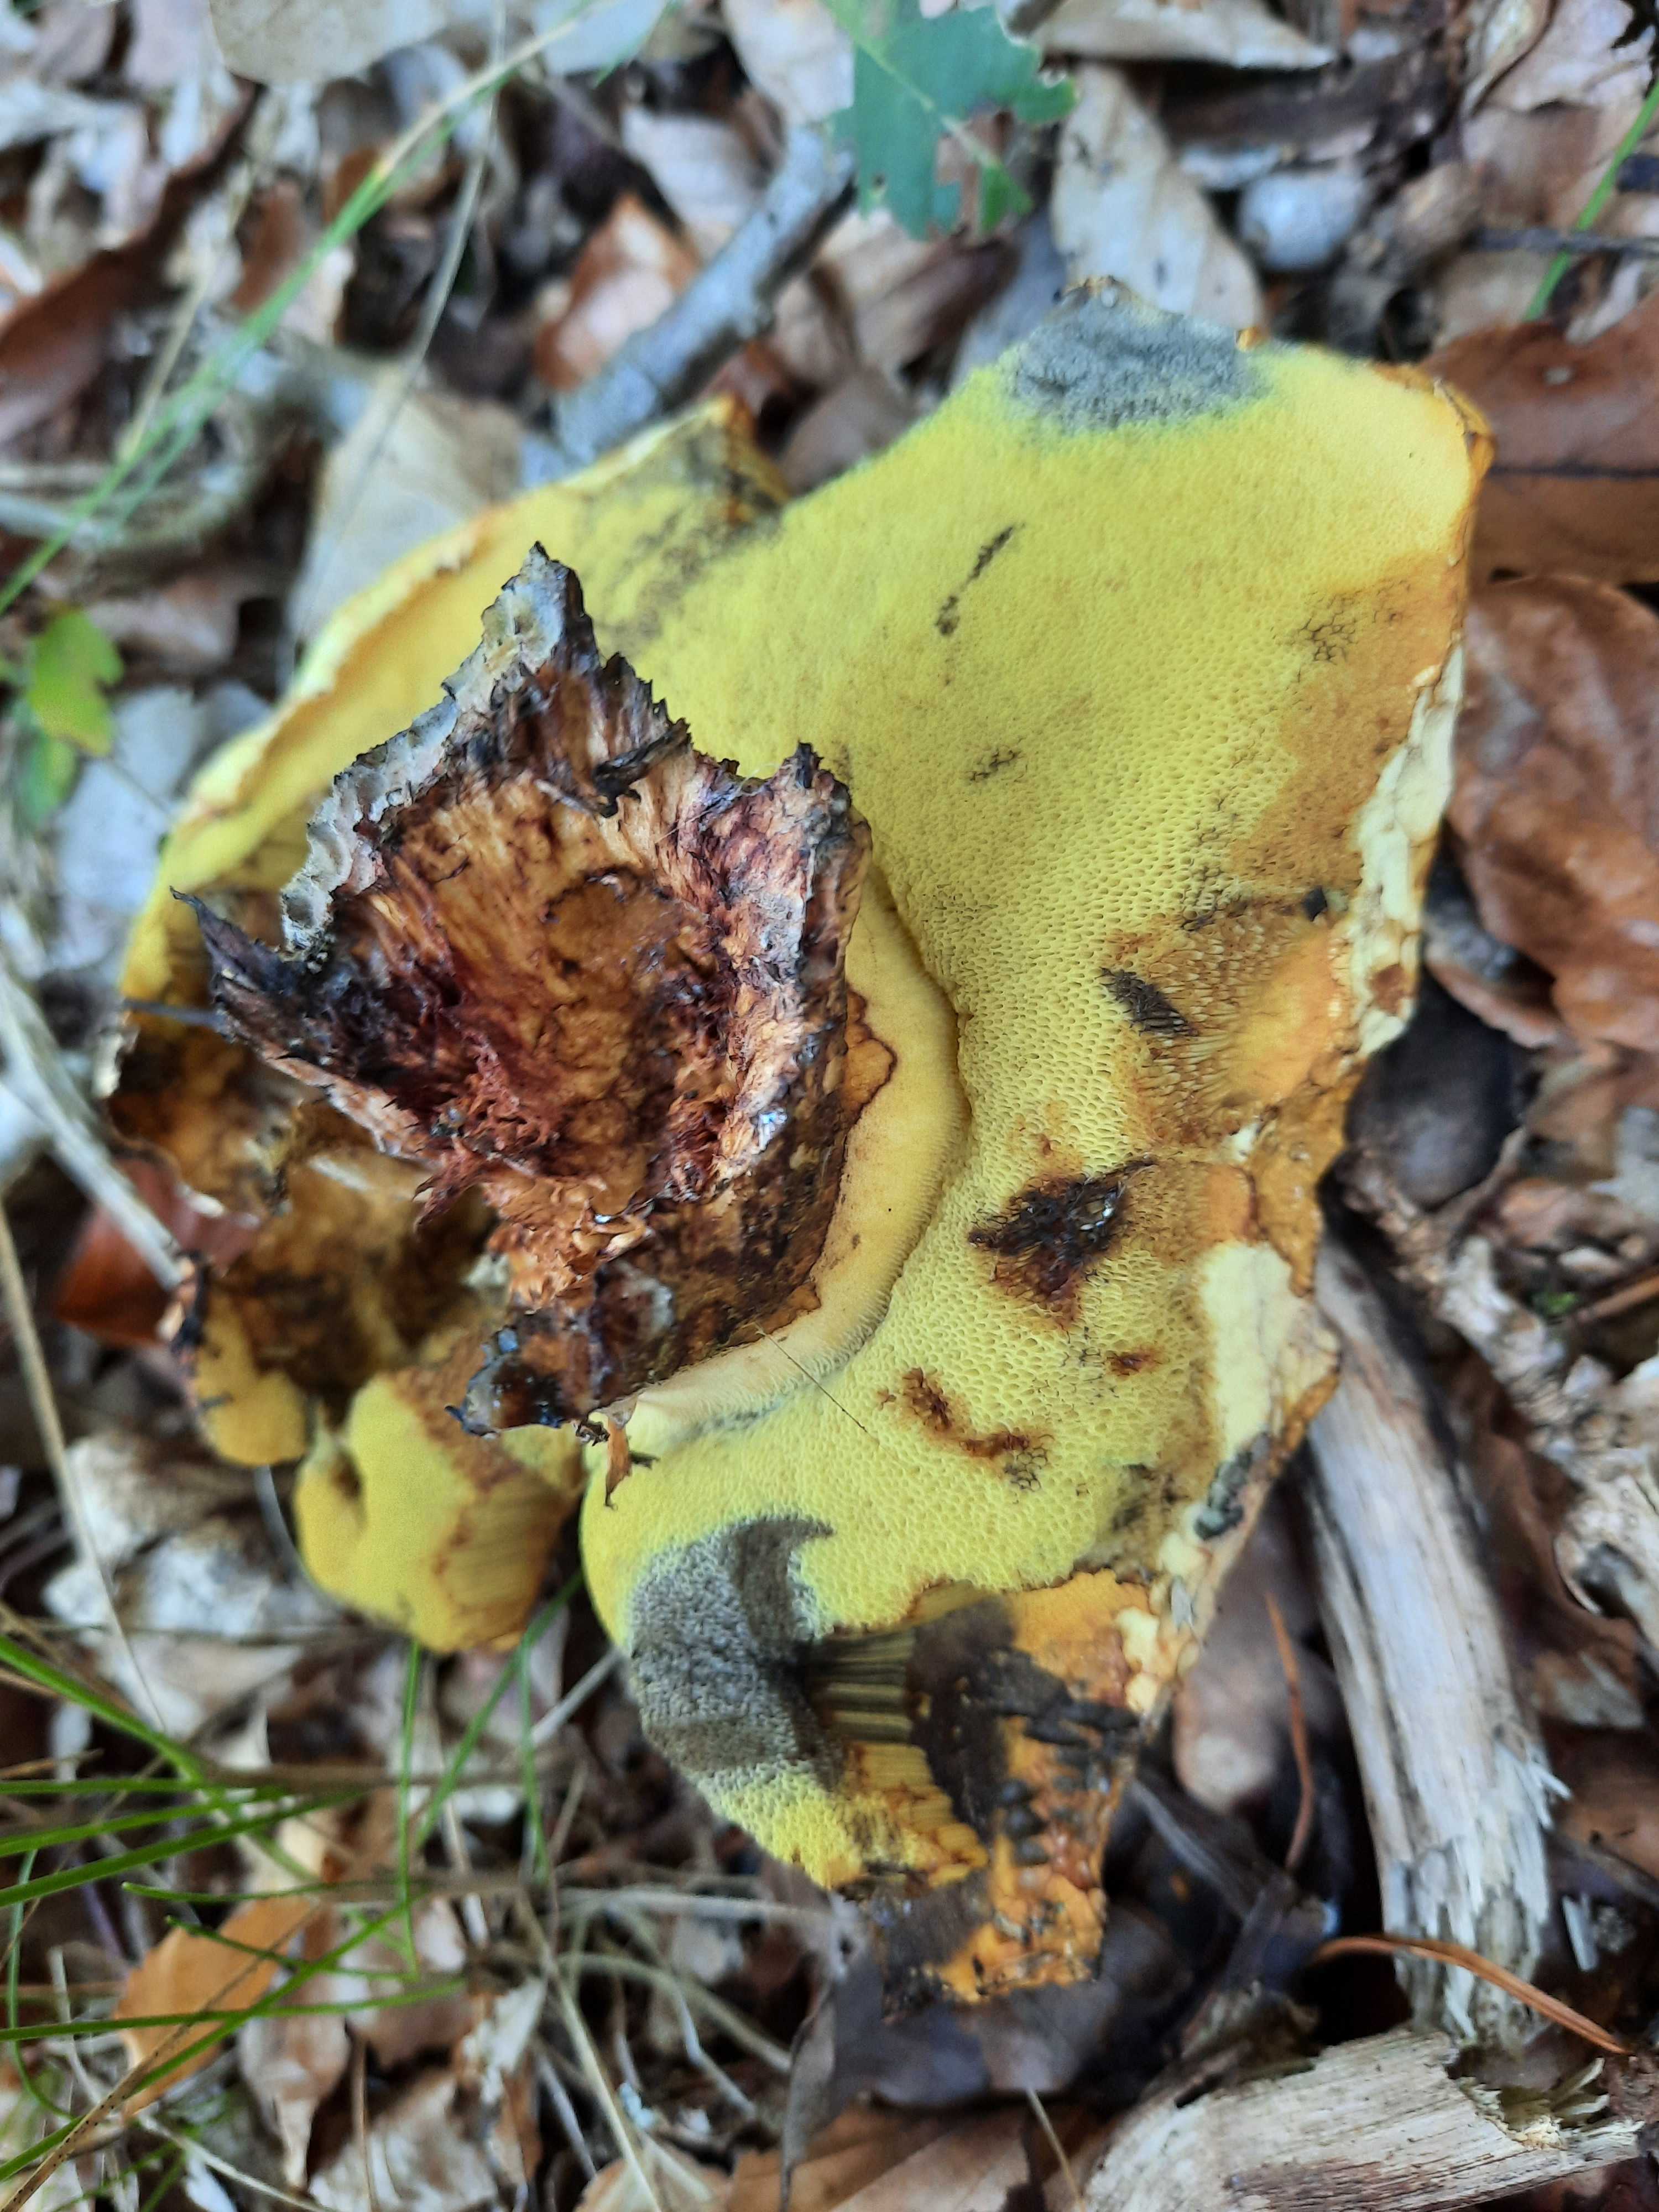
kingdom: Fungi
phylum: Basidiomycota
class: Agaricomycetes
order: Boletales
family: Boletaceae
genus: Neoboletus
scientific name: Neoboletus praestigiator
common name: gul indigorørhat
